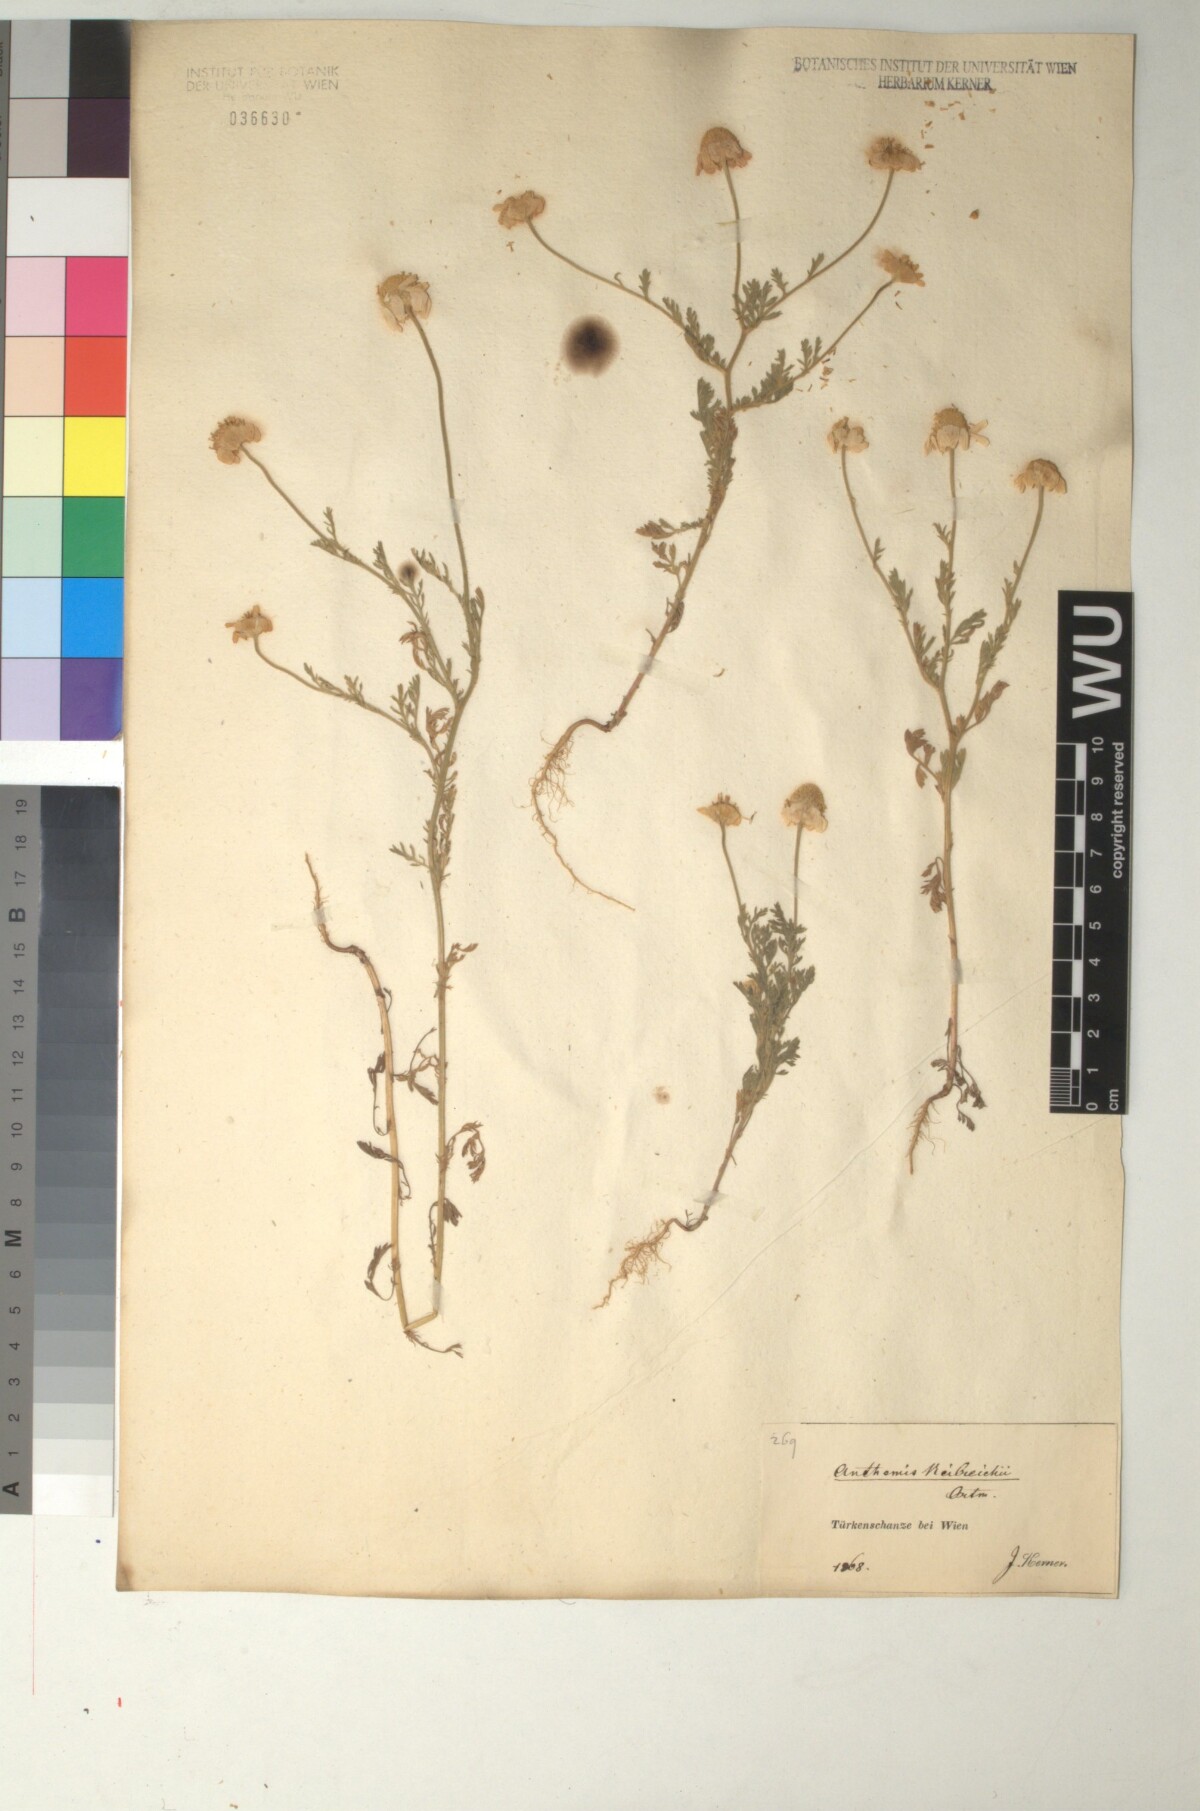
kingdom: Plantae
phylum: Tracheophyta
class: Magnoliopsida
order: Asterales
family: Asteraceae
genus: Anthemis
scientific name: Anthemis ruthenica
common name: Eastern chamomile
